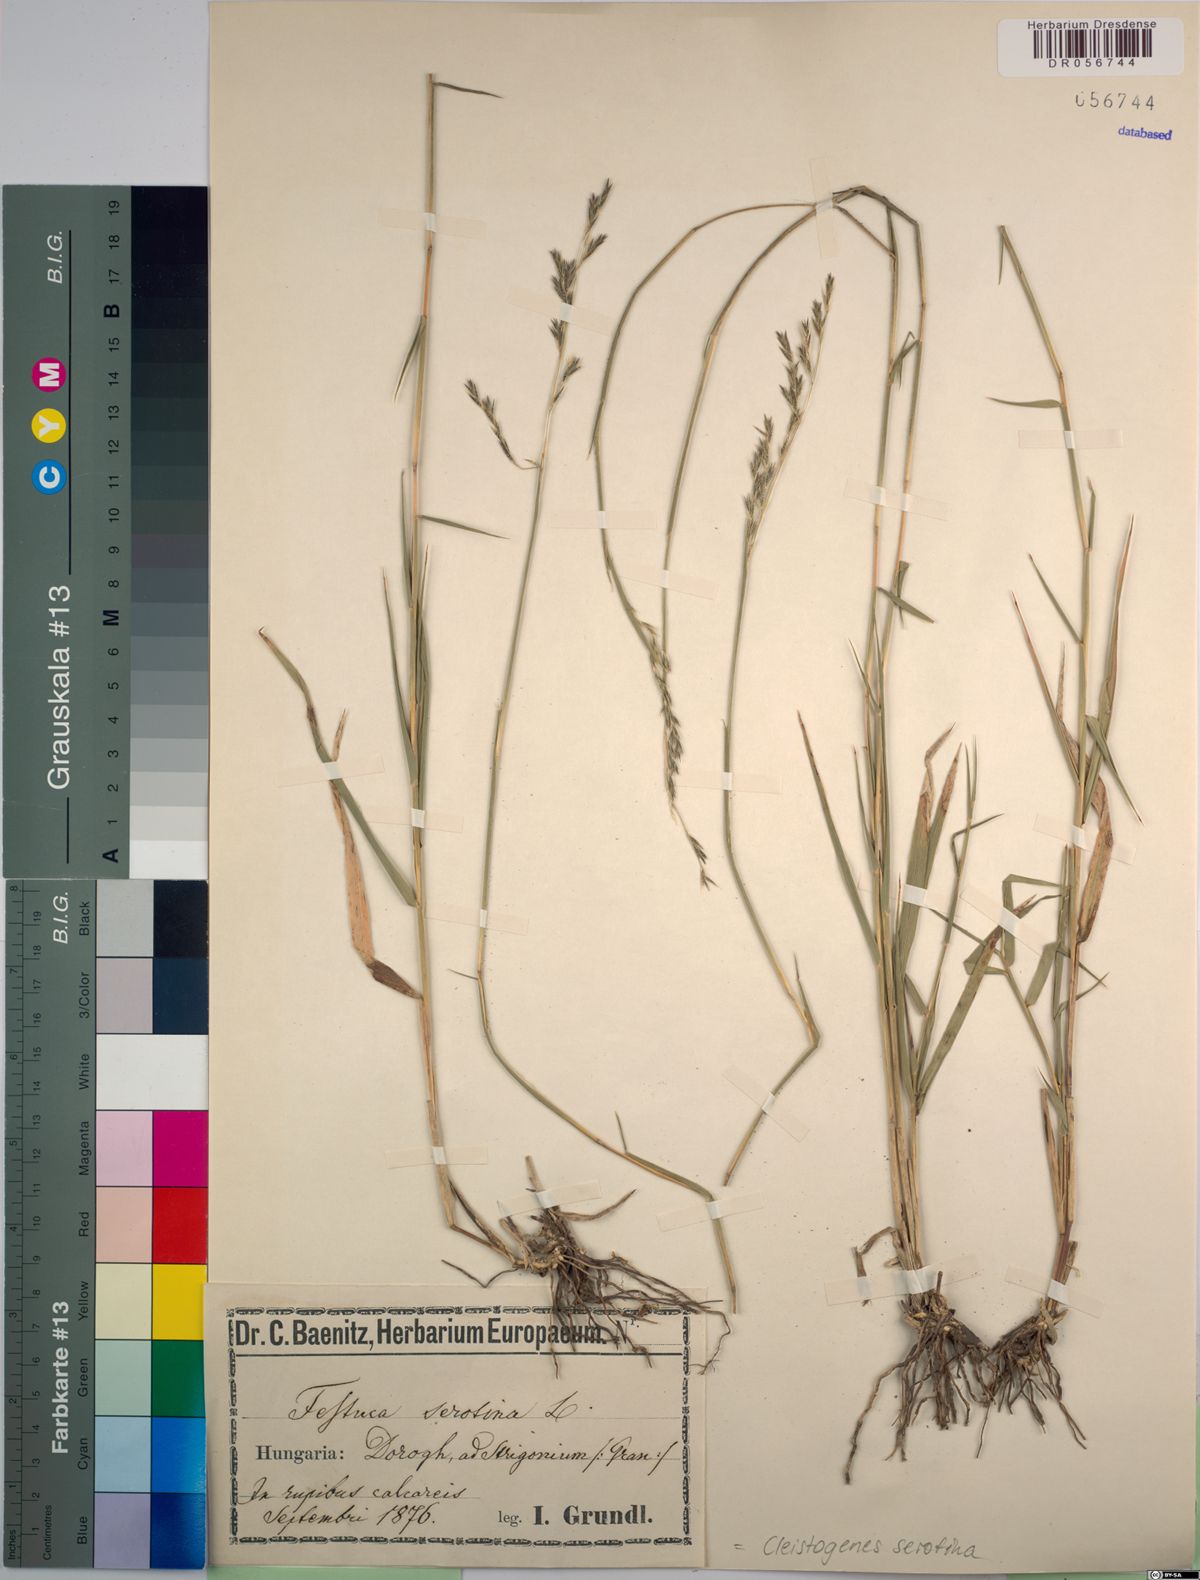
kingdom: Plantae
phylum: Tracheophyta
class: Liliopsida
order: Poales
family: Poaceae
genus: Cleistogenes
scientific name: Cleistogenes serotina
